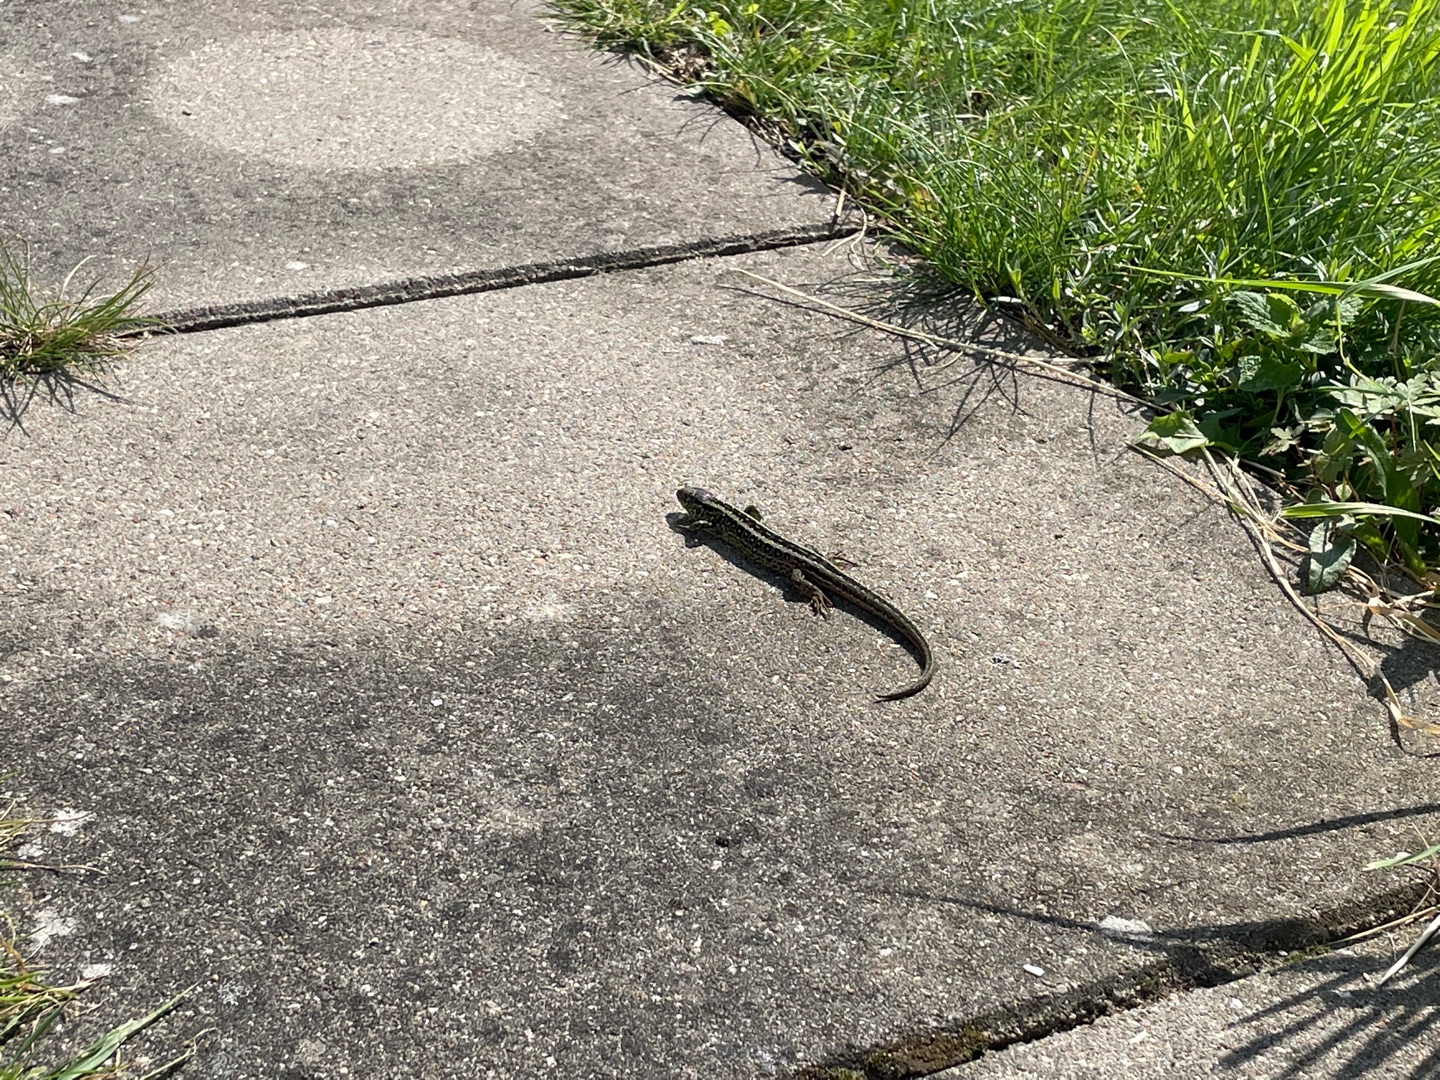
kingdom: Animalia
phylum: Chordata
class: Squamata
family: Lacertidae
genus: Lacerta
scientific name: Lacerta agilis
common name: Markfirben
